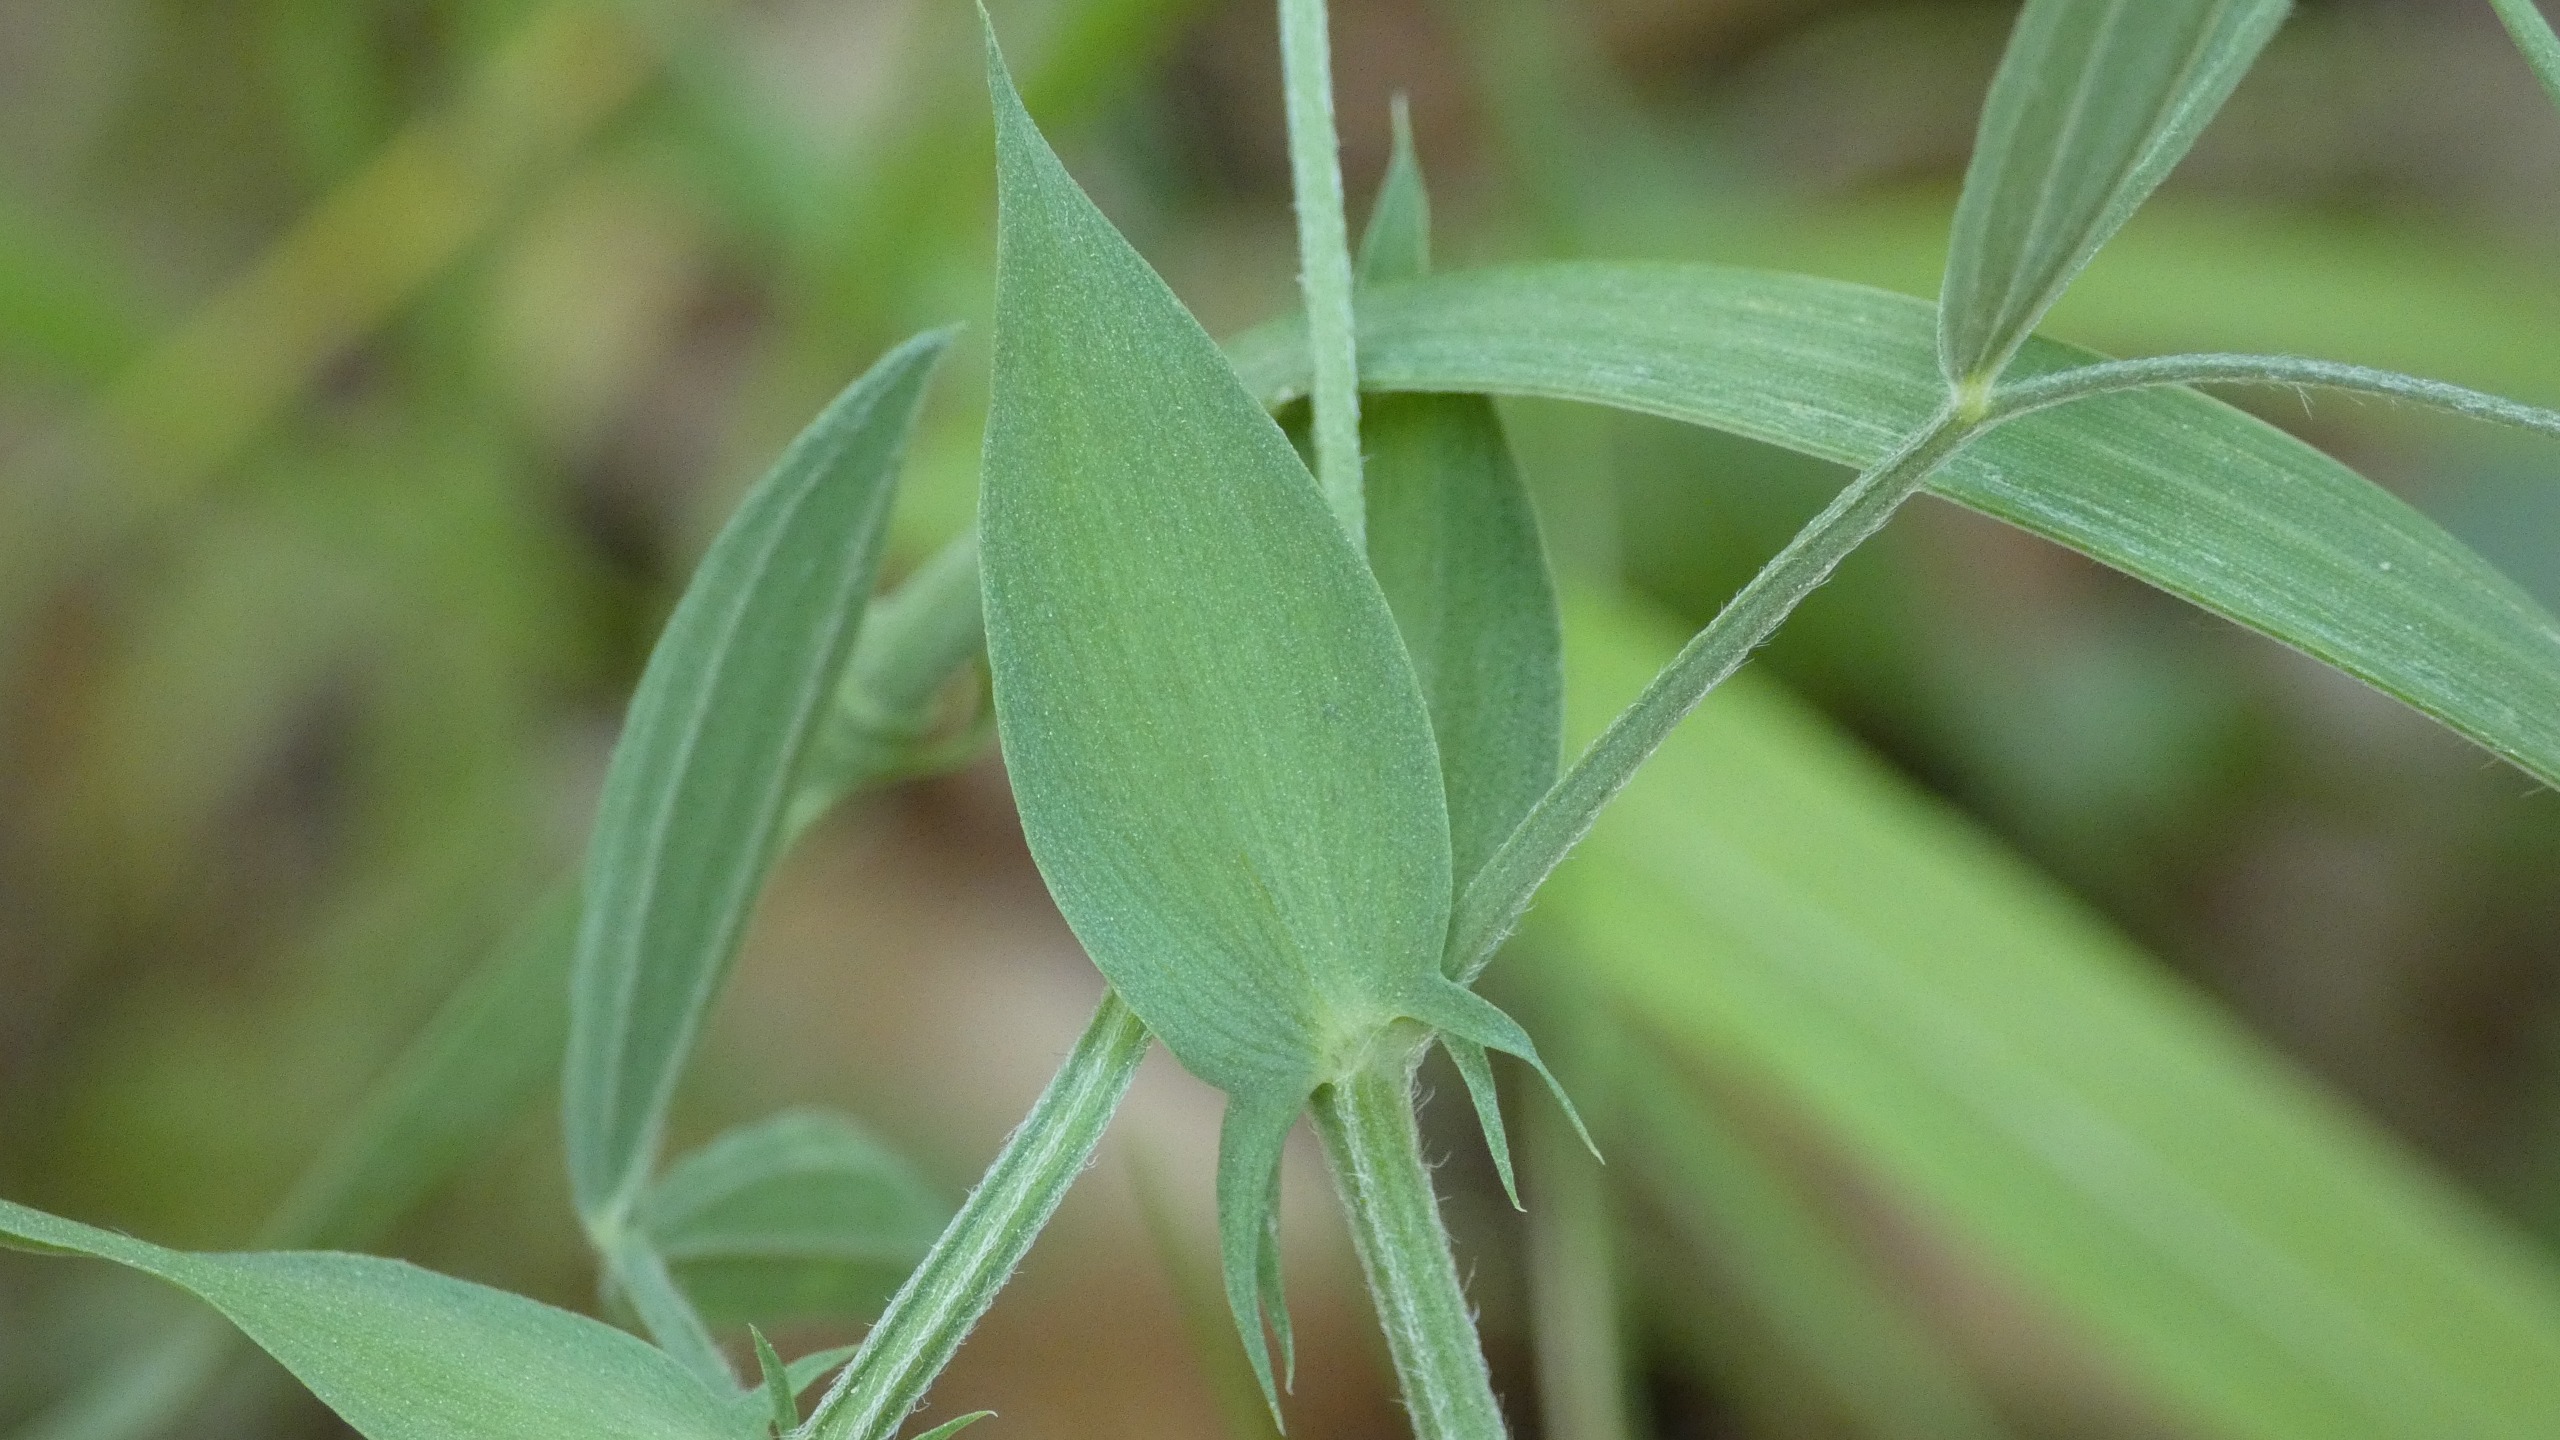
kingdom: Plantae
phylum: Tracheophyta
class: Magnoliopsida
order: Fabales
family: Fabaceae
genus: Lathyrus
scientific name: Lathyrus pratensis
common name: Gul fladbælg
